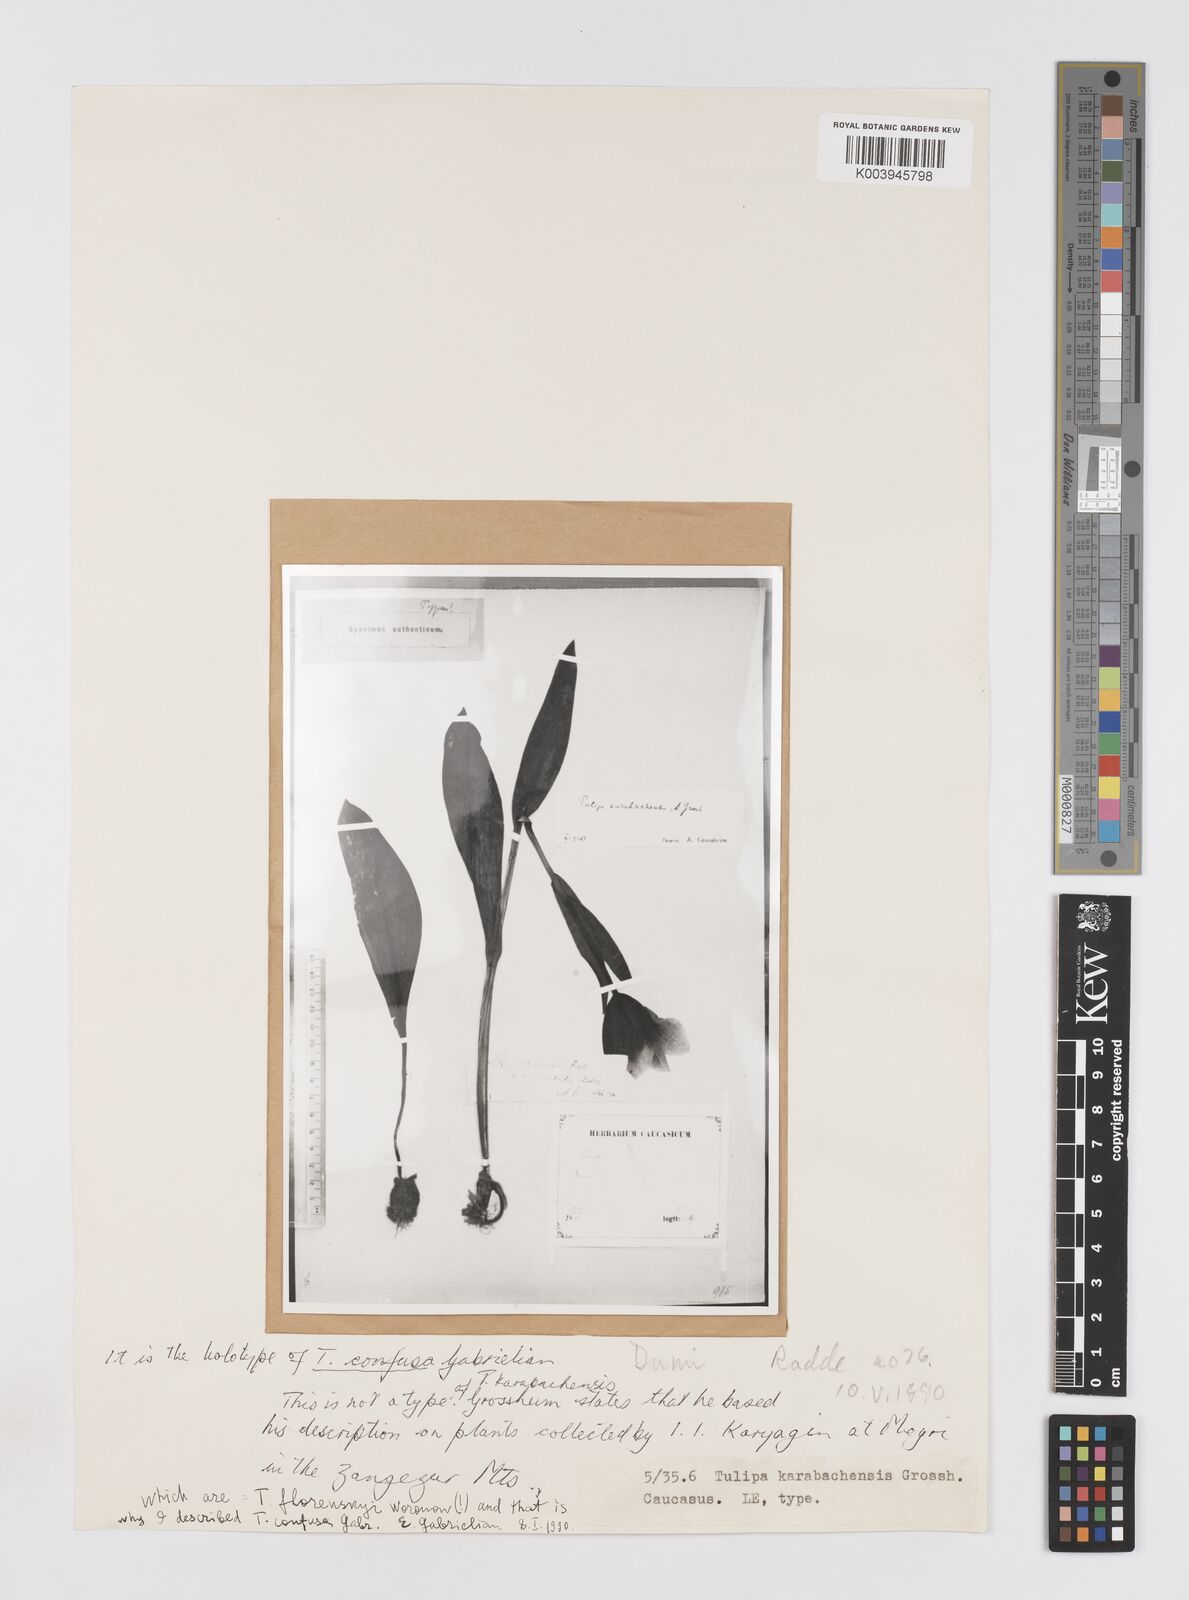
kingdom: Plantae
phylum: Tracheophyta
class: Liliopsida
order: Liliales
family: Liliaceae
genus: Tulipa
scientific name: Tulipa armena
